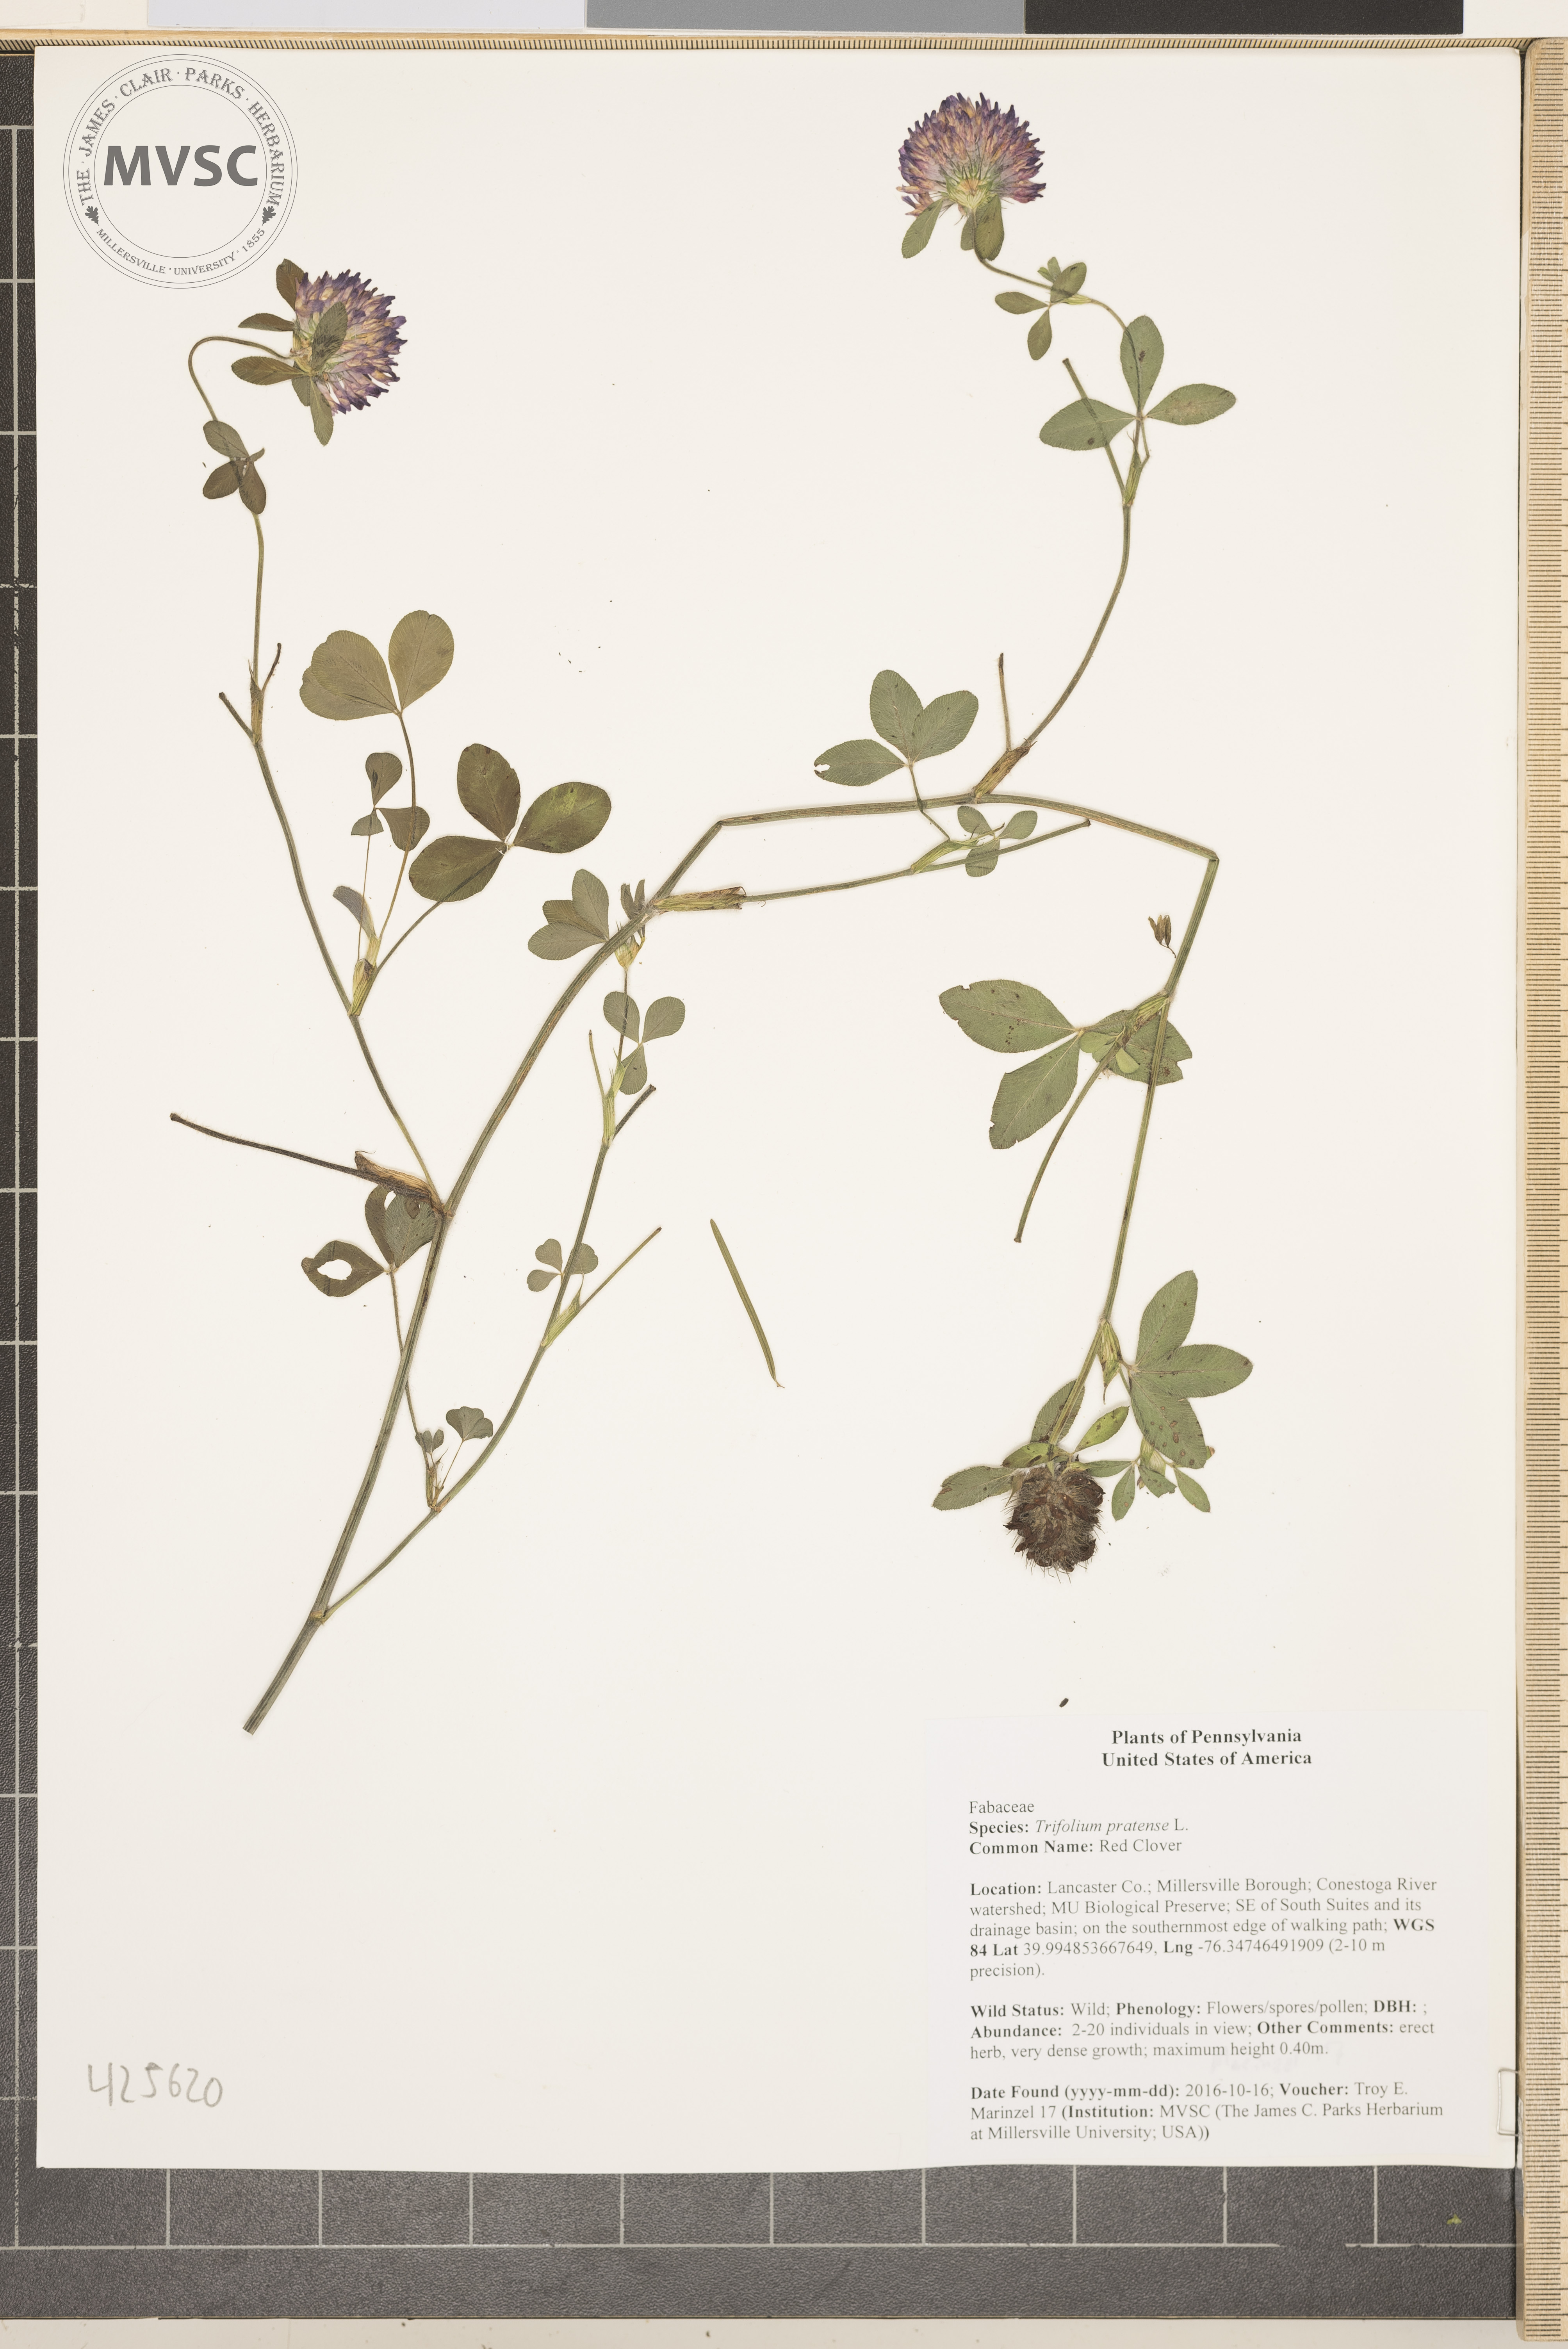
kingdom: Plantae
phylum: Tracheophyta
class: Magnoliopsida
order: Fabales
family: Fabaceae
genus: Trifolium
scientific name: Trifolium pratense
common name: Red Clover
